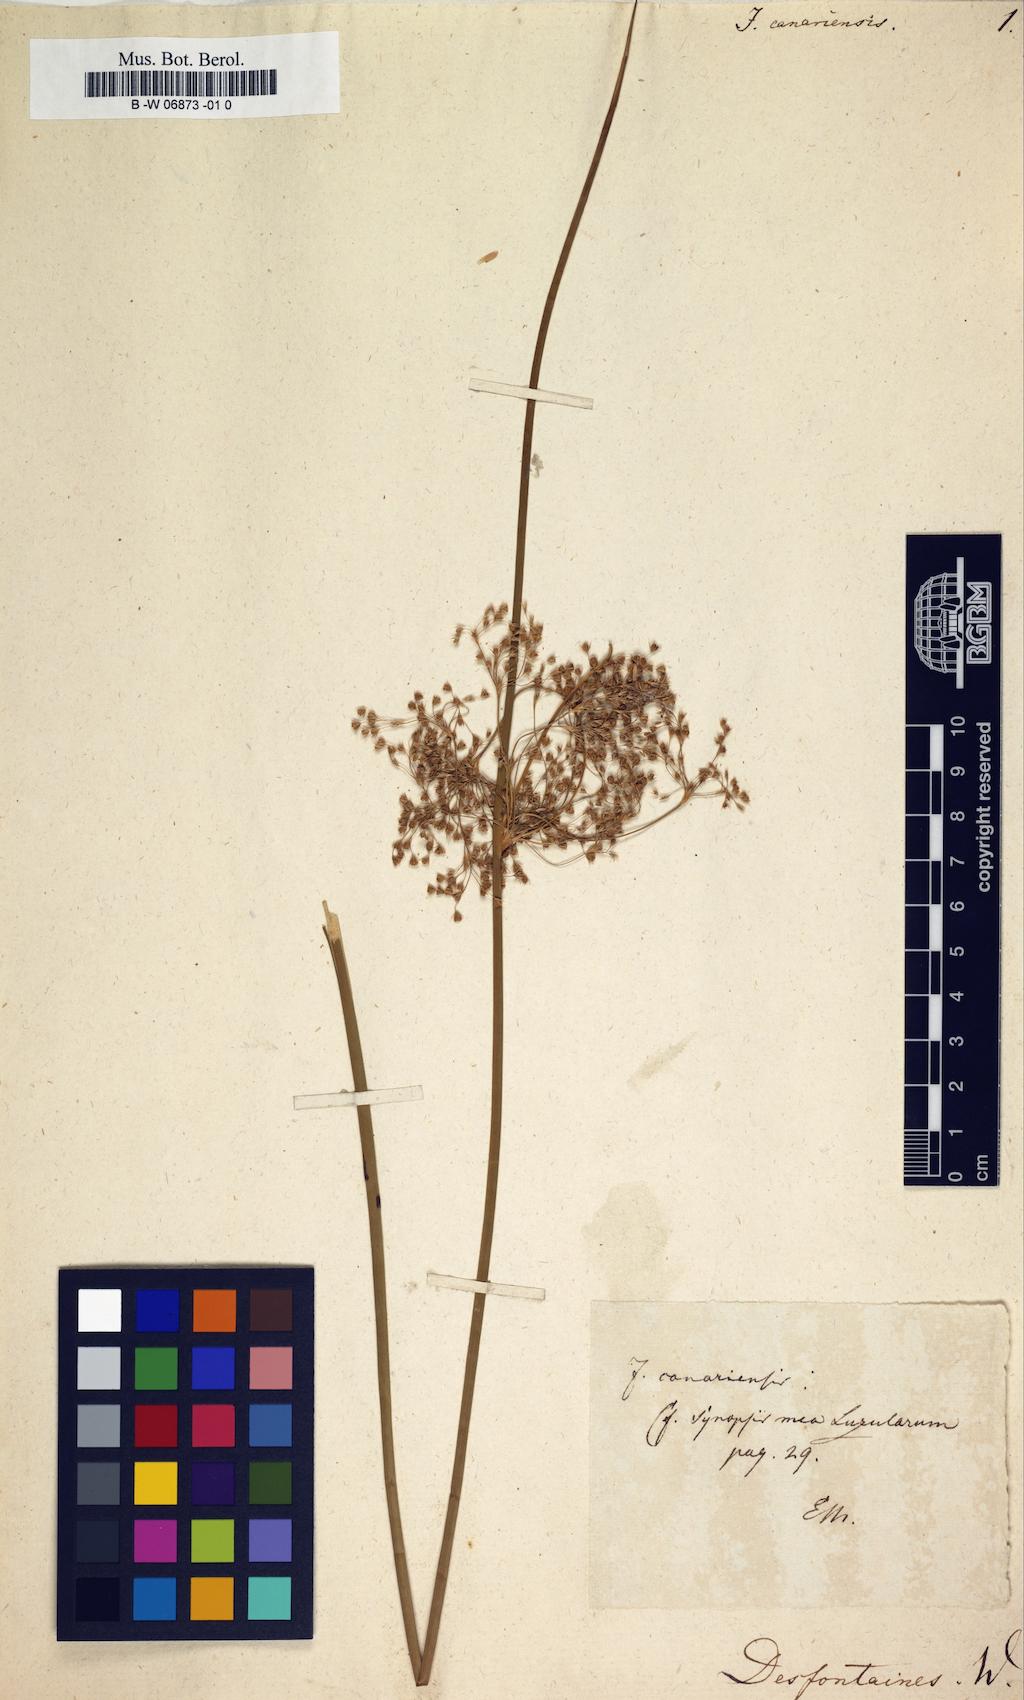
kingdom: Plantae
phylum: Tracheophyta
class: Liliopsida
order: Poales
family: Juncaceae
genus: Juncus
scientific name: Juncus effusus
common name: Soft rush
